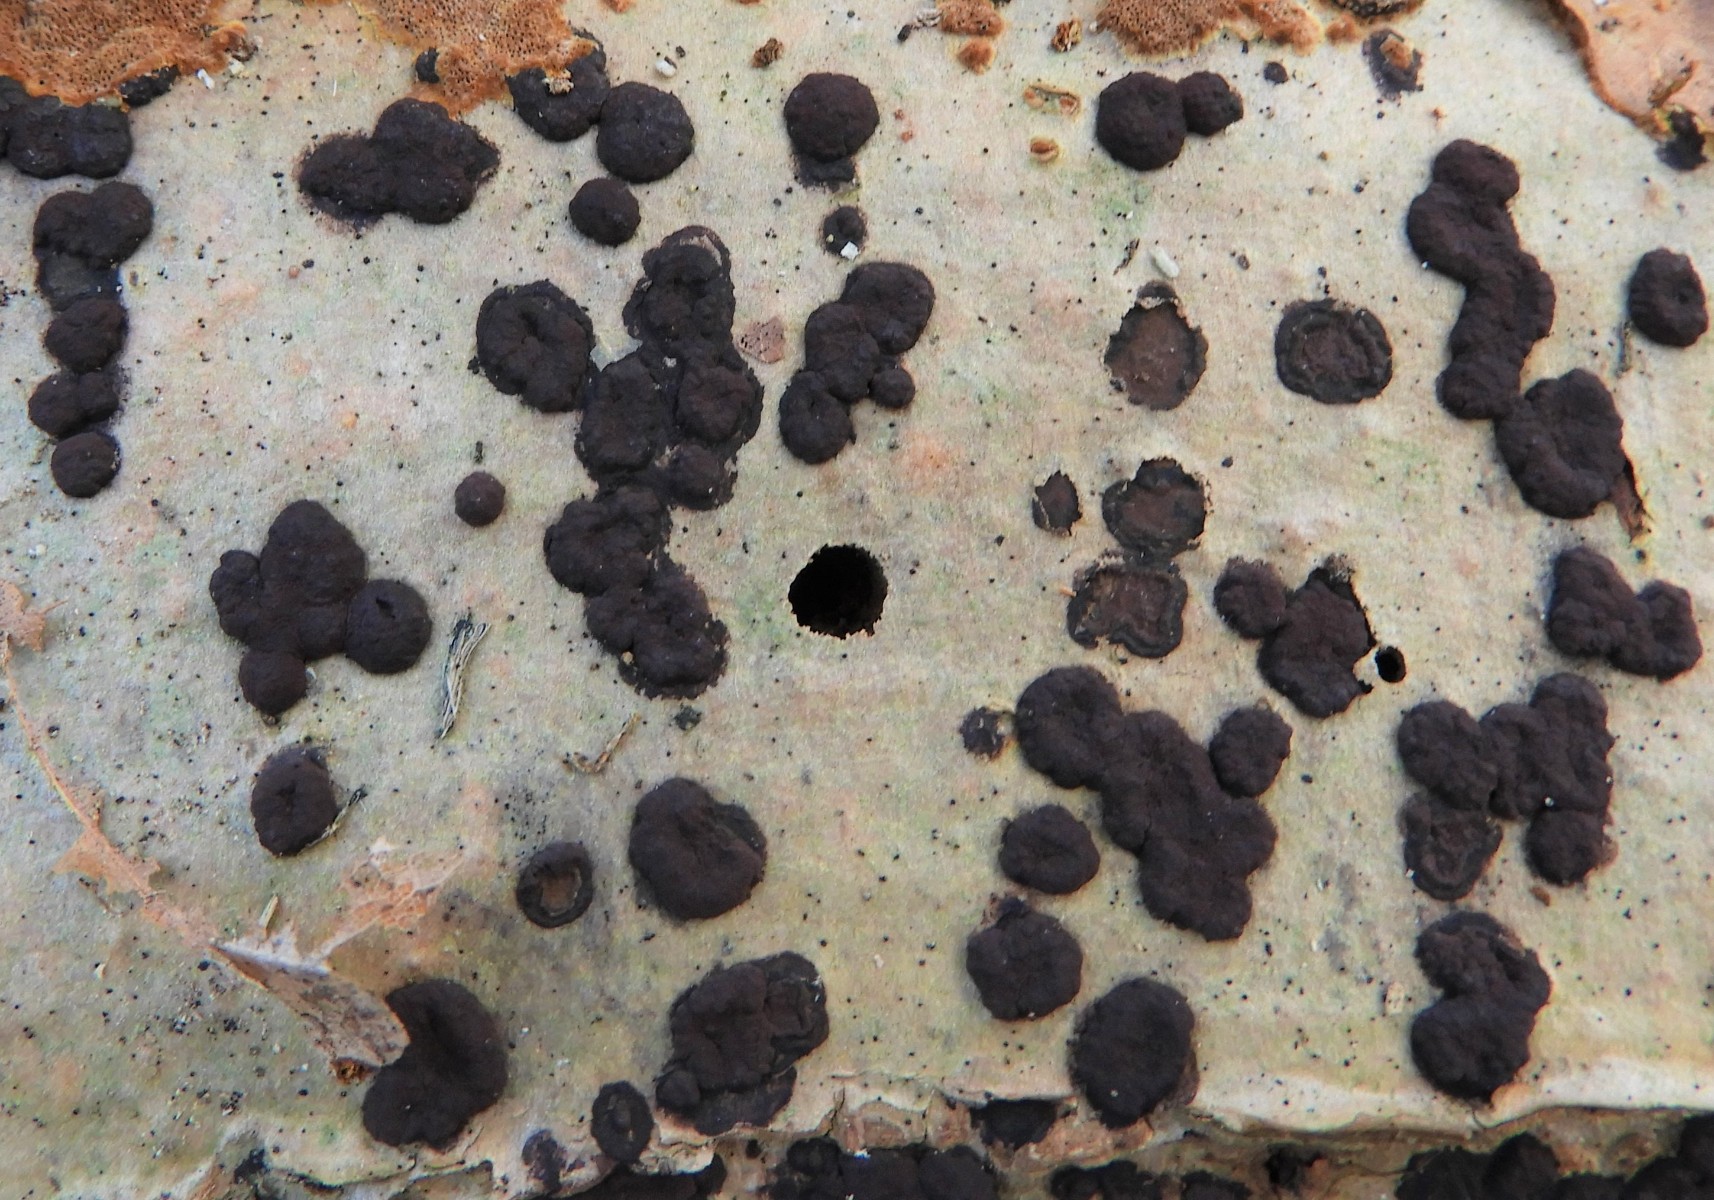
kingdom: Fungi
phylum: Ascomycota
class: Sordariomycetes
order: Xylariales
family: Hypoxylaceae
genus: Hypoxylon
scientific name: Hypoxylon fuscum
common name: kegleformet kulbær
